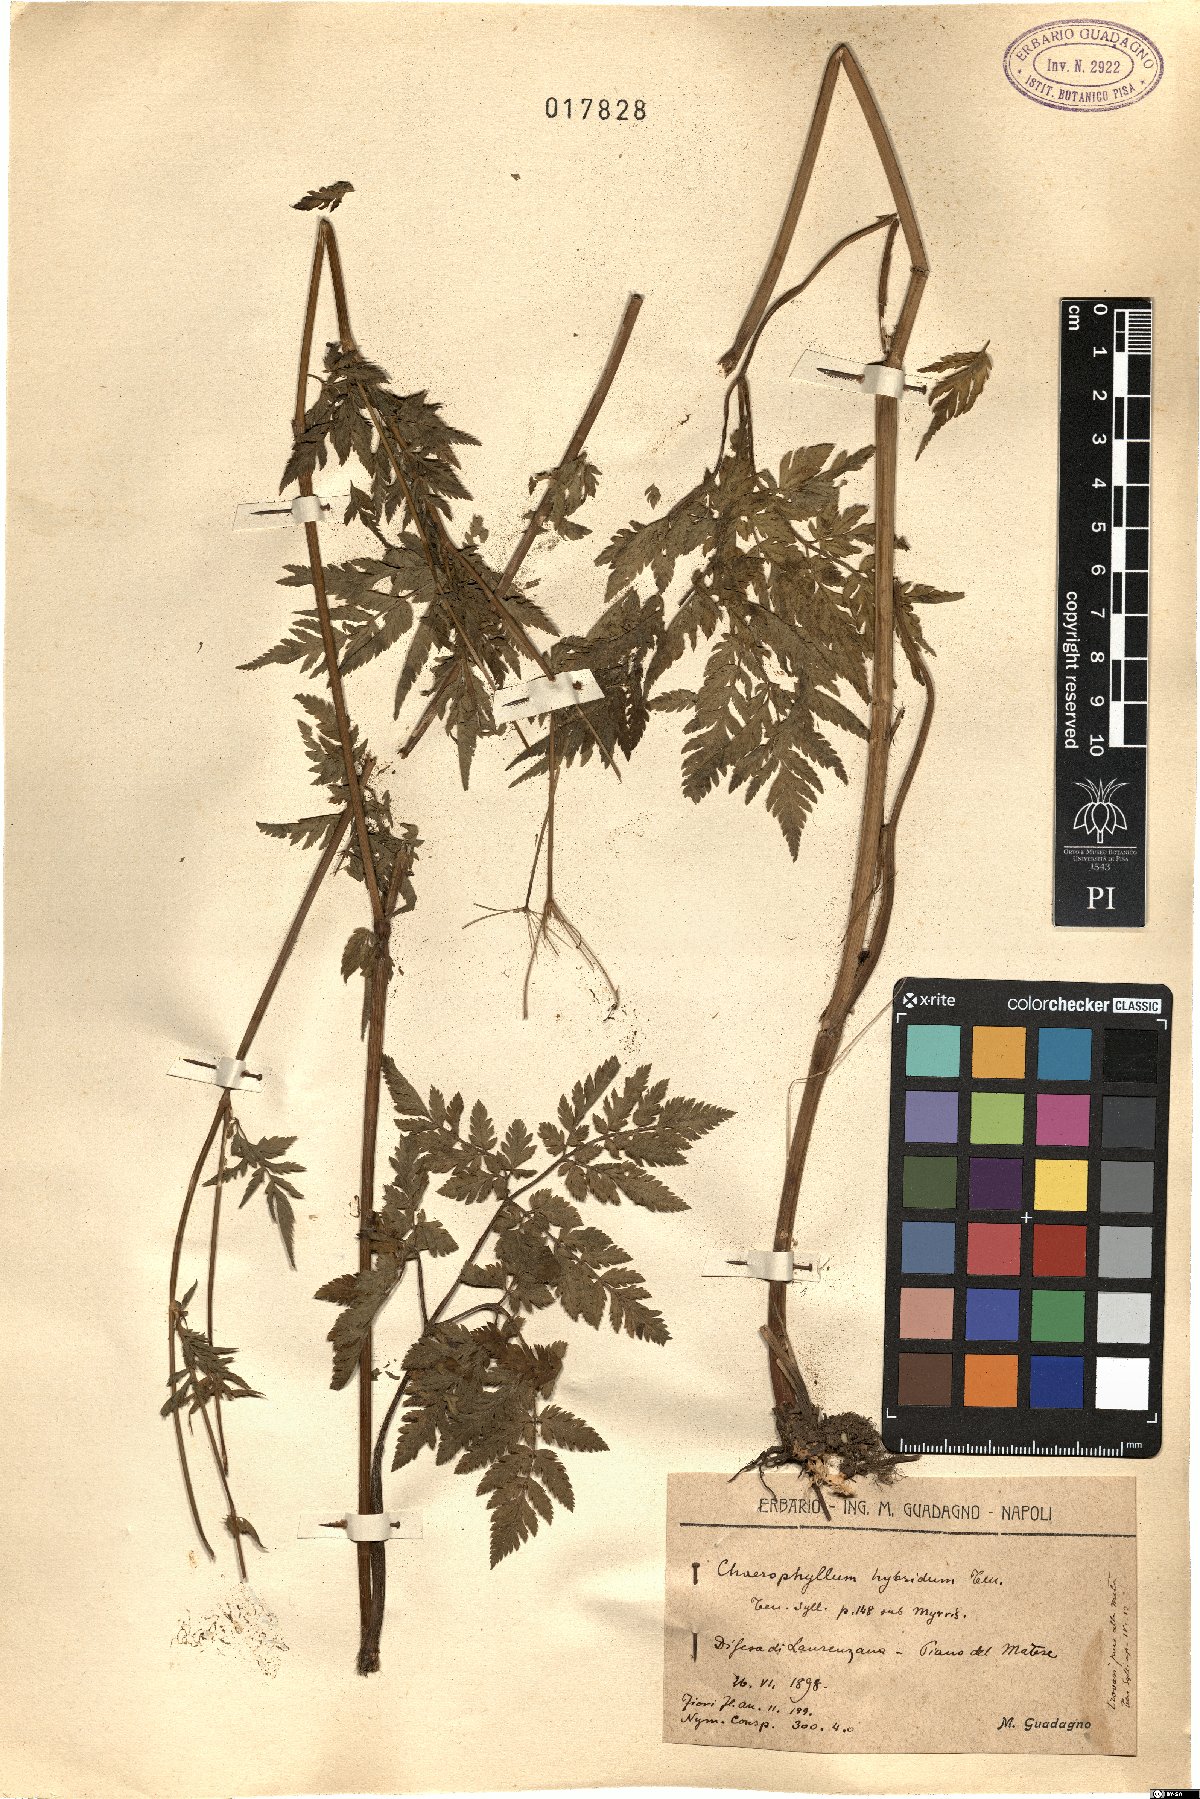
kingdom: Plantae
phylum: Tracheophyta
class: Magnoliopsida
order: Apiales
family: Apiaceae
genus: Chaerophyllum
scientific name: Chaerophyllum aureum
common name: Golden chervil
